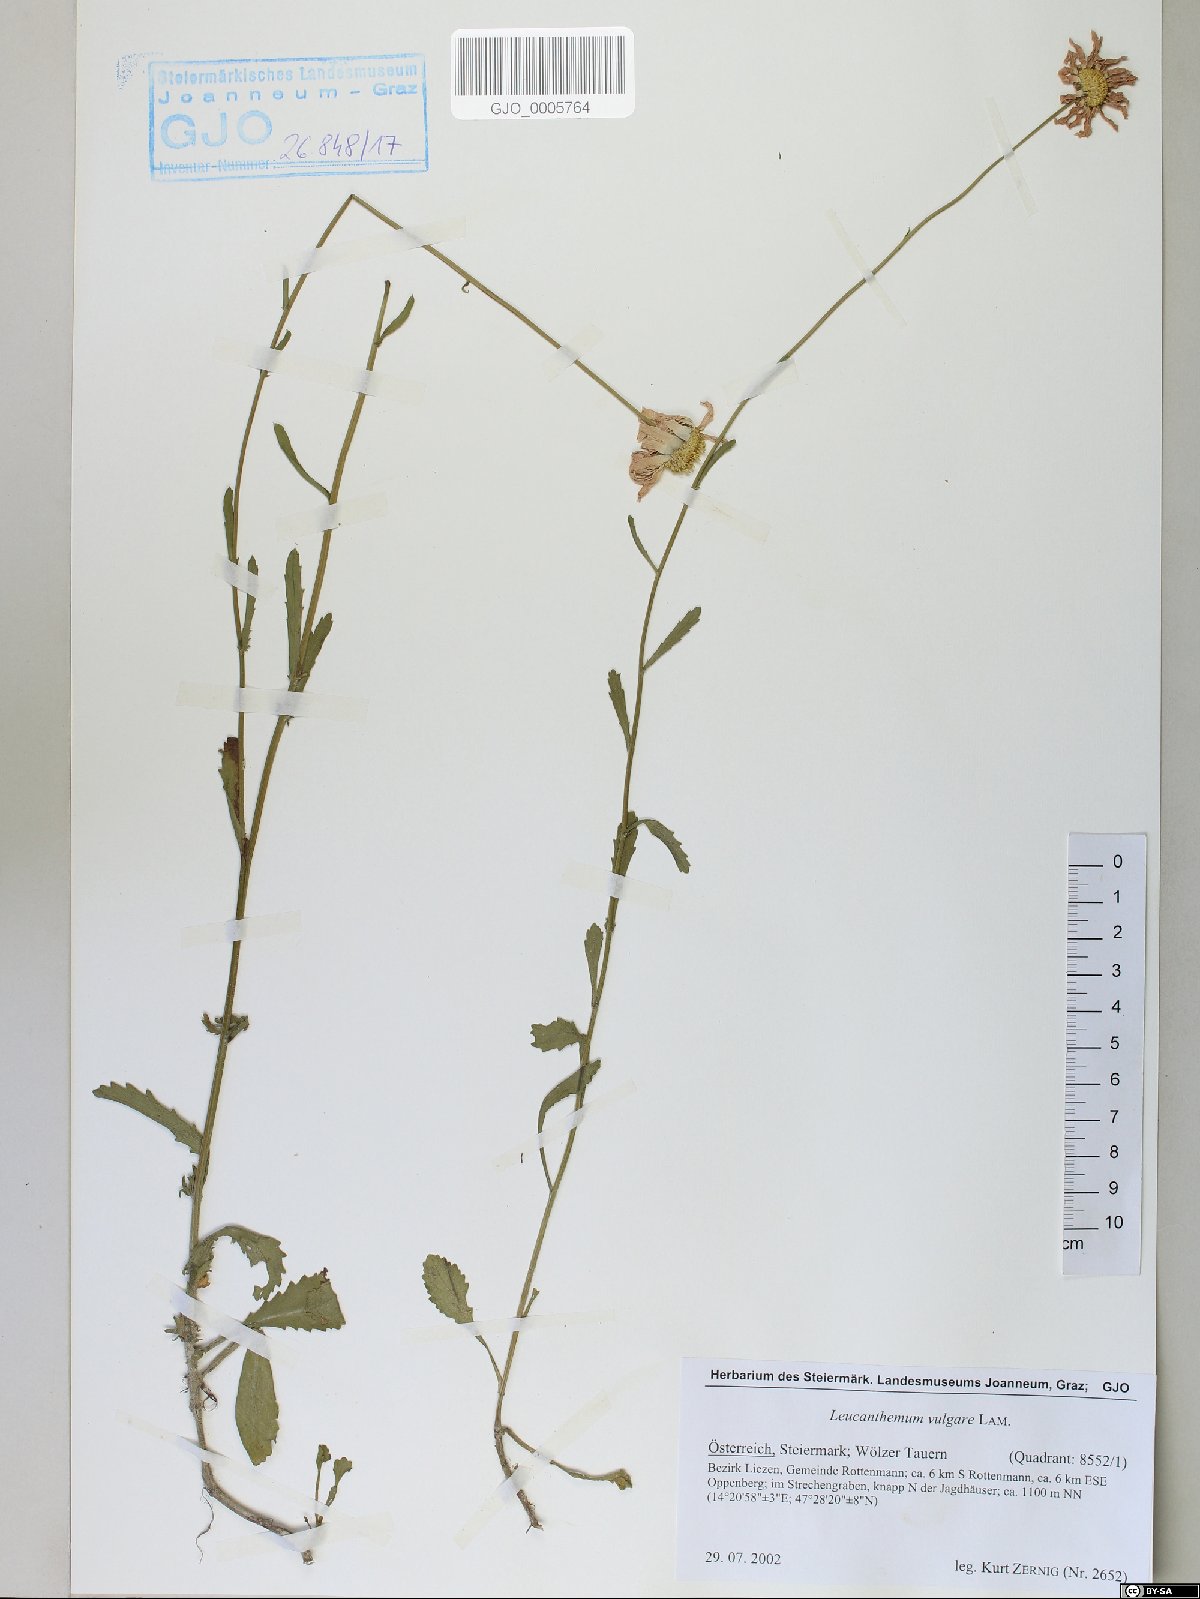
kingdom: Plantae
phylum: Tracheophyta
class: Magnoliopsida
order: Asterales
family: Asteraceae
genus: Leucanthemum
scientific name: Leucanthemum vulgare
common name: Oxeye daisy
